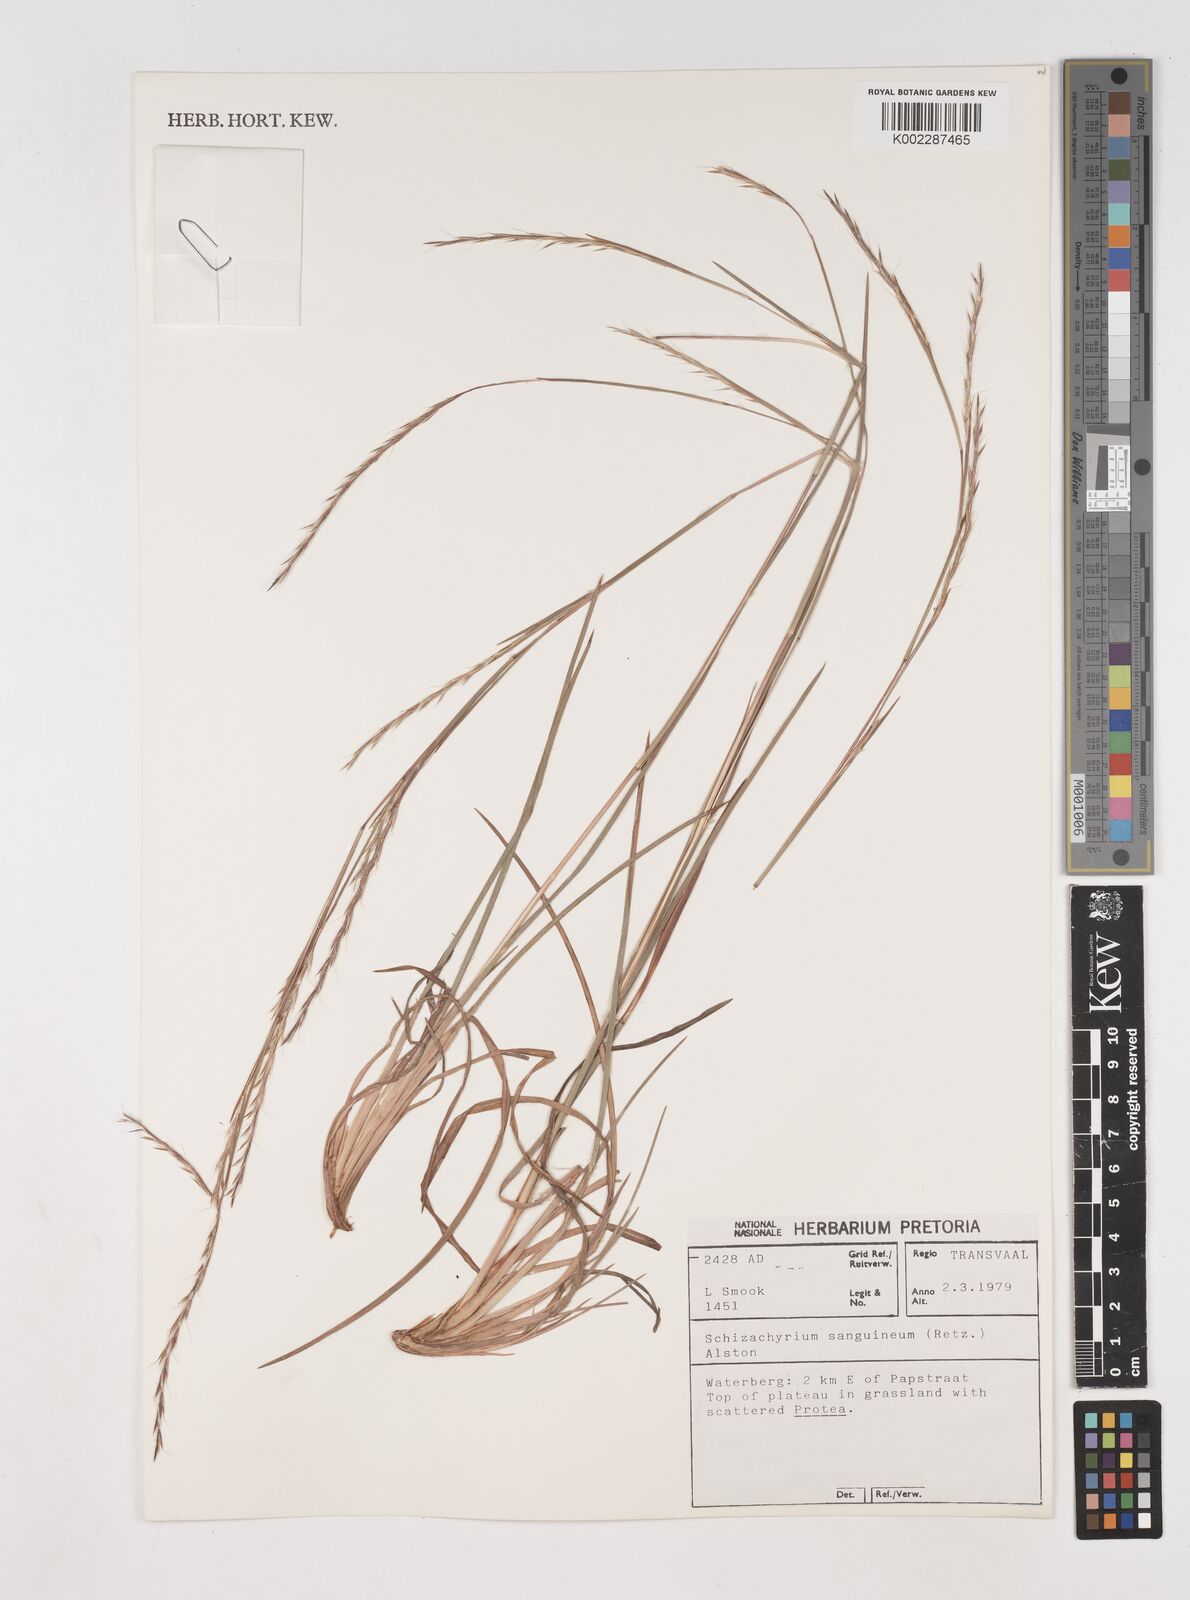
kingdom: Plantae
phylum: Tracheophyta
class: Liliopsida
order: Poales
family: Poaceae
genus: Schizachyrium
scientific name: Schizachyrium sanguineum
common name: Crimson bluestem
